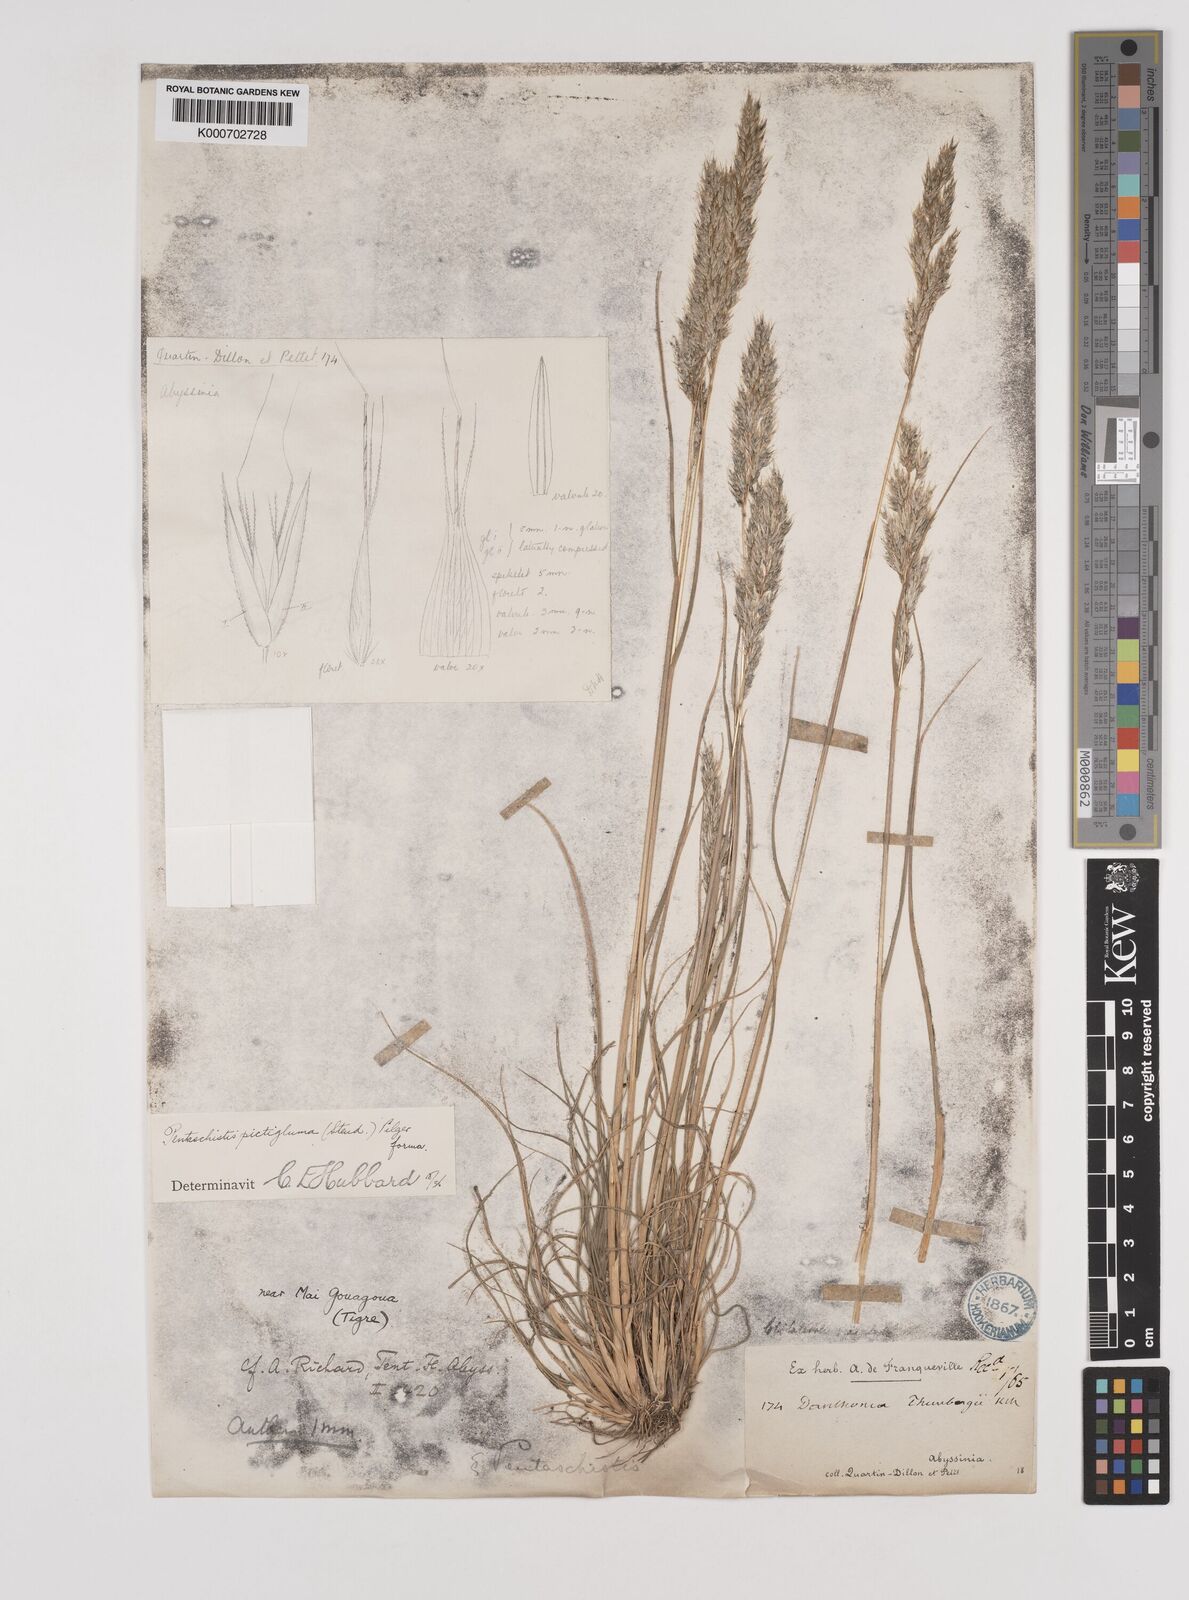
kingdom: Plantae
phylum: Tracheophyta
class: Liliopsida
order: Poales
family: Poaceae
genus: Pentameris
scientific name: Pentameris pictigluma
